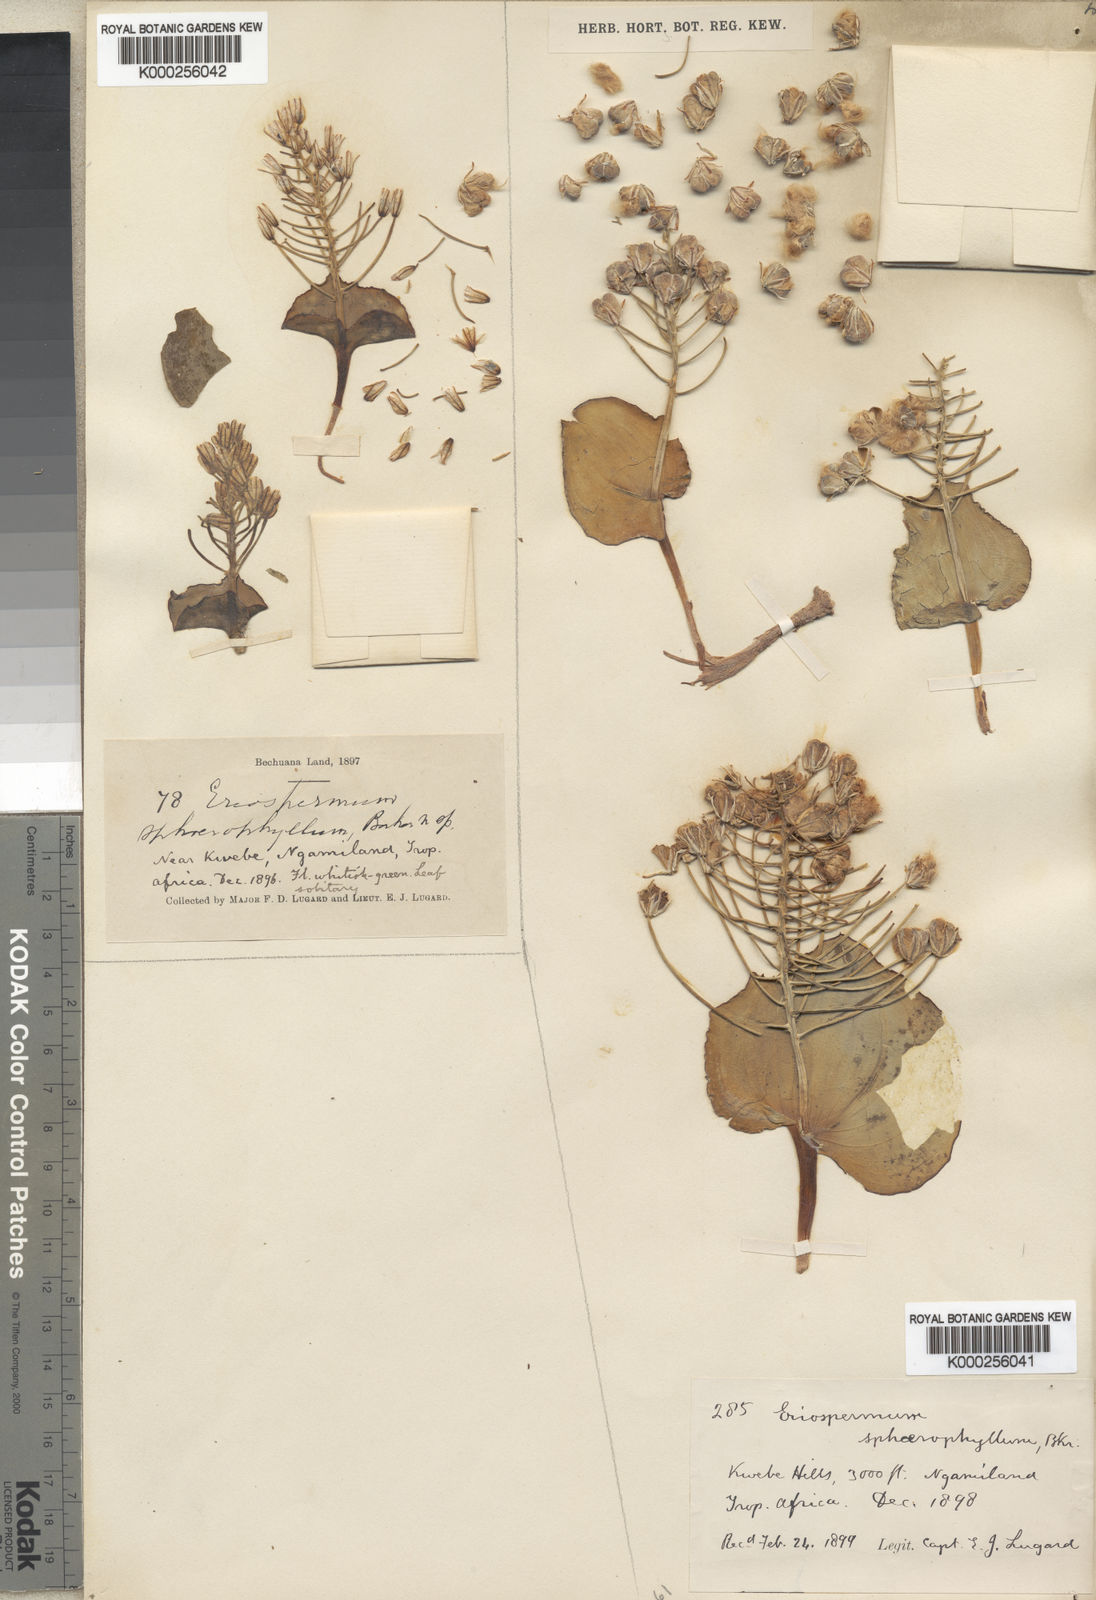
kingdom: Plantae
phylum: Tracheophyta
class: Liliopsida
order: Asparagales
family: Asparagaceae
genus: Eriospermum
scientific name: Eriospermum currorii
